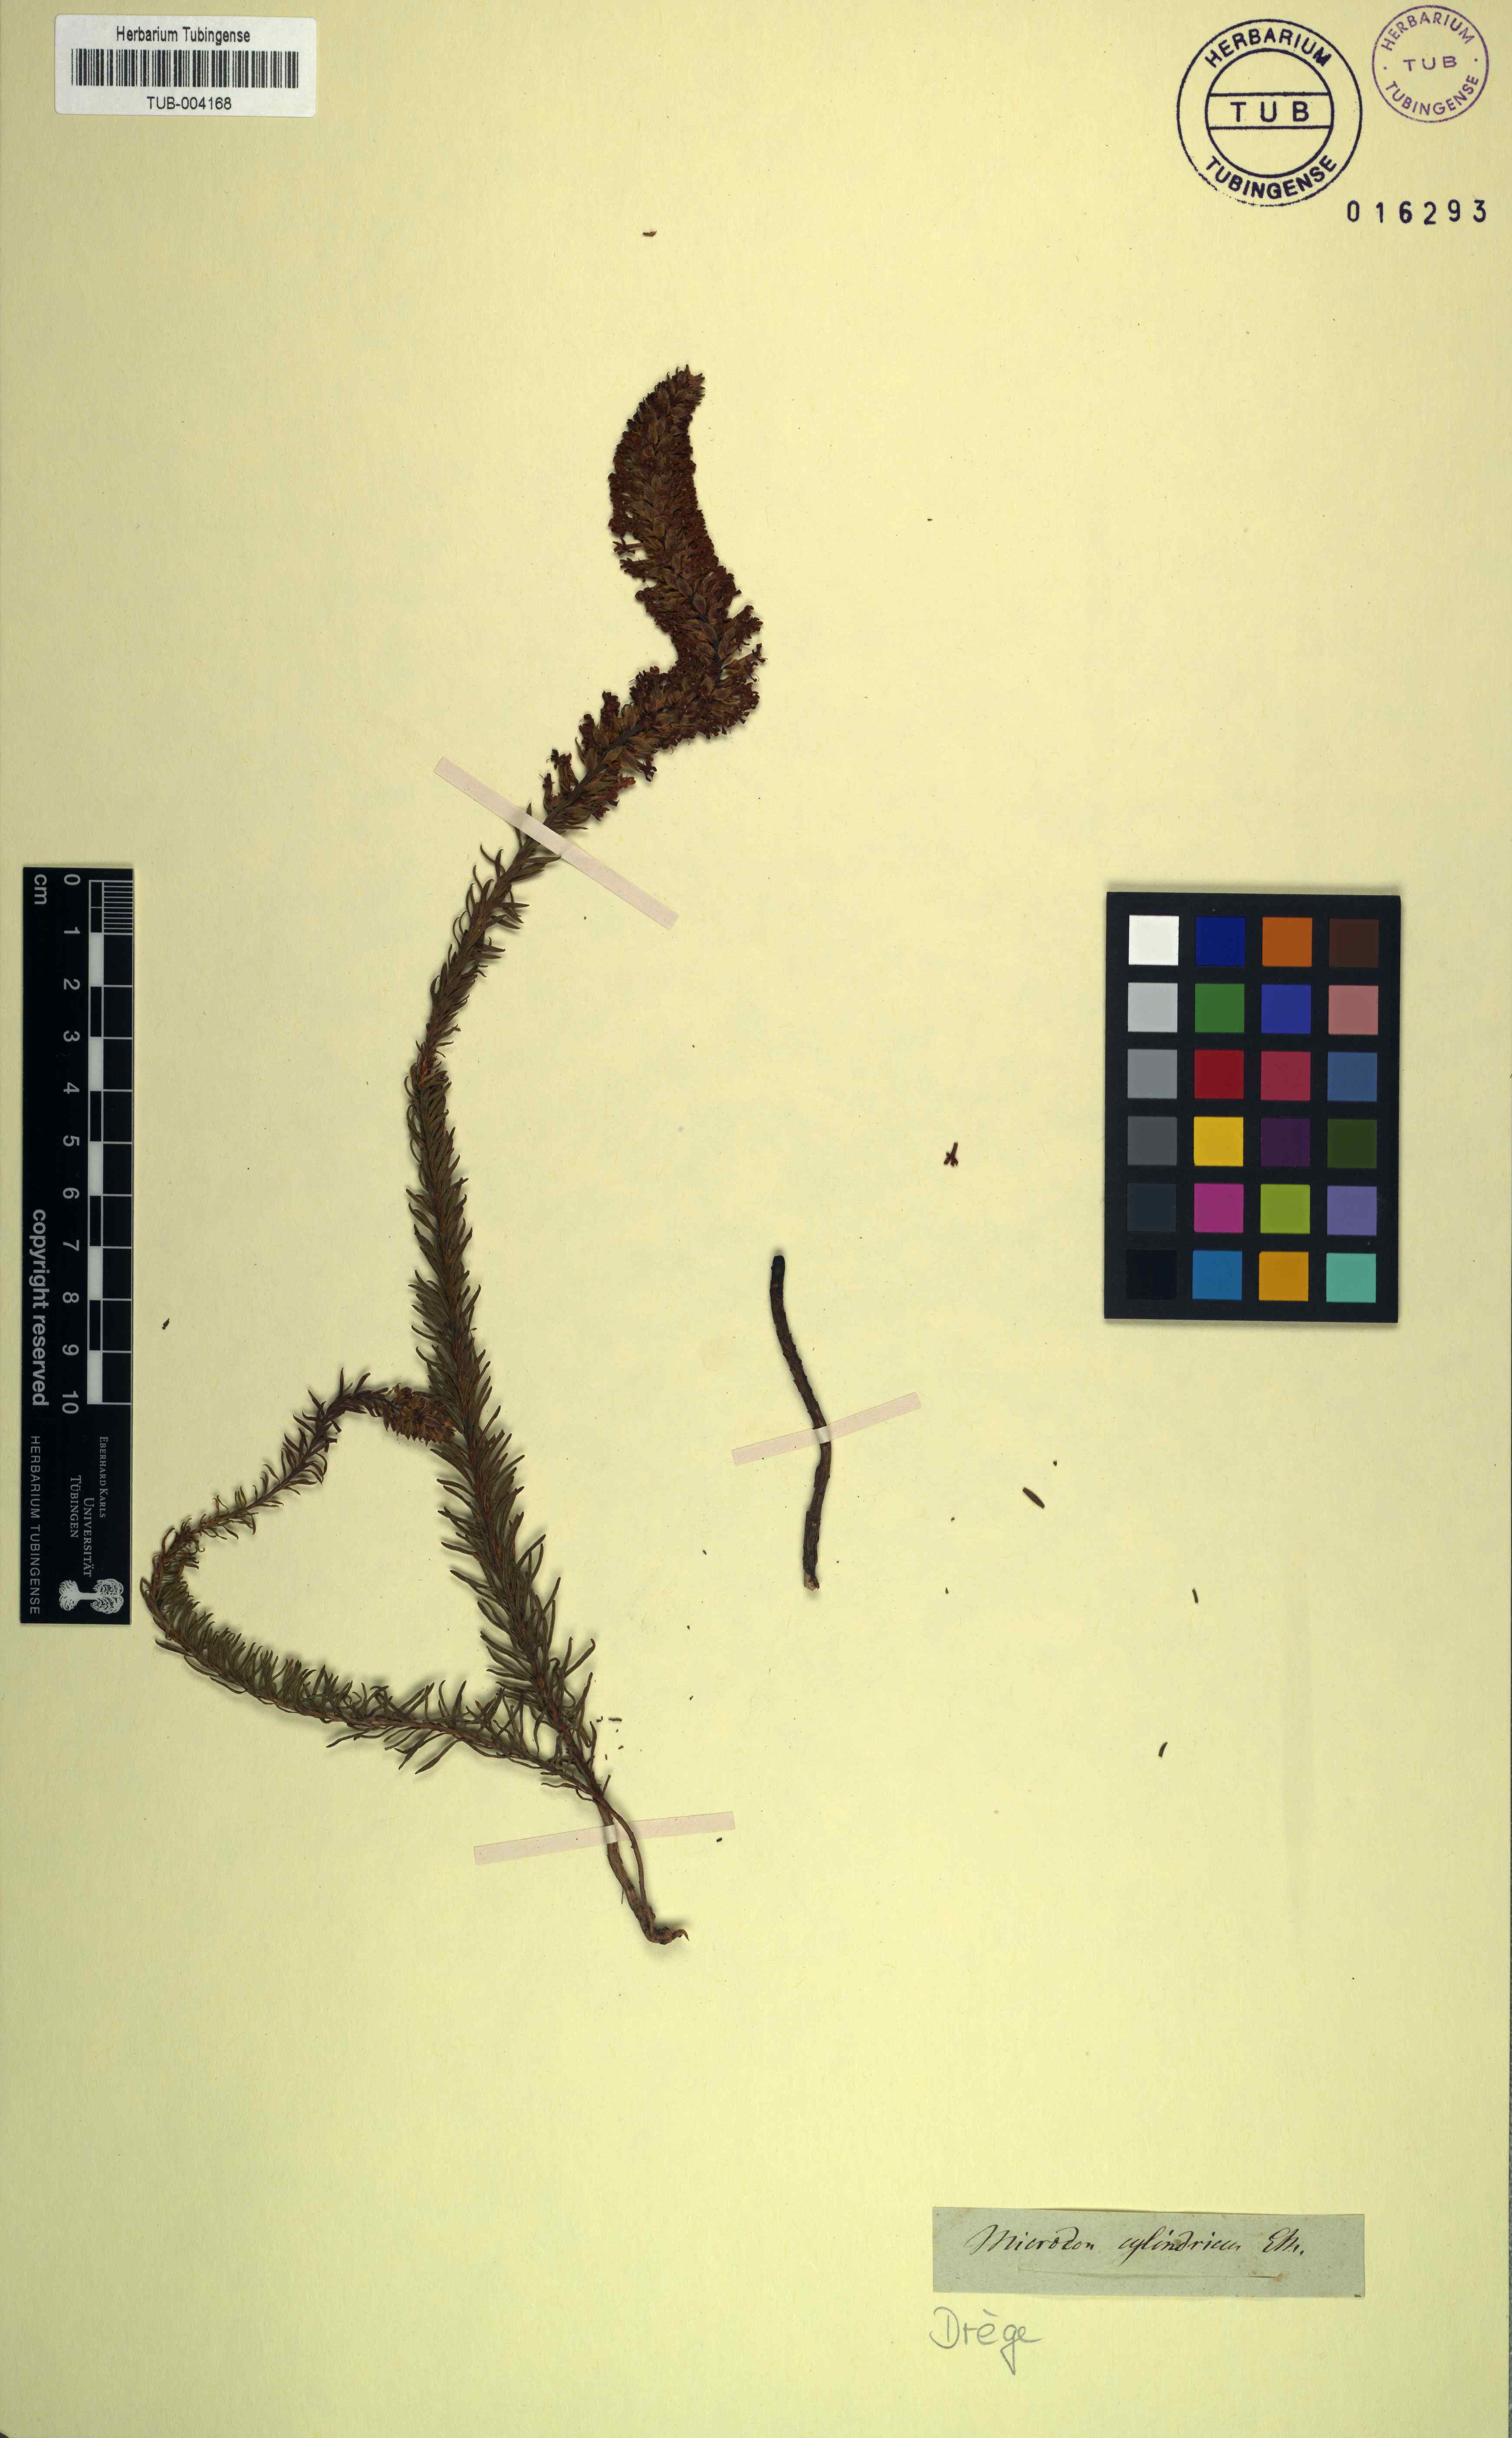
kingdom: Plantae
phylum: Tracheophyta
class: Magnoliopsida
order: Lamiales
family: Scrophulariaceae
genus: Microdon
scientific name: Microdon polygaloides
